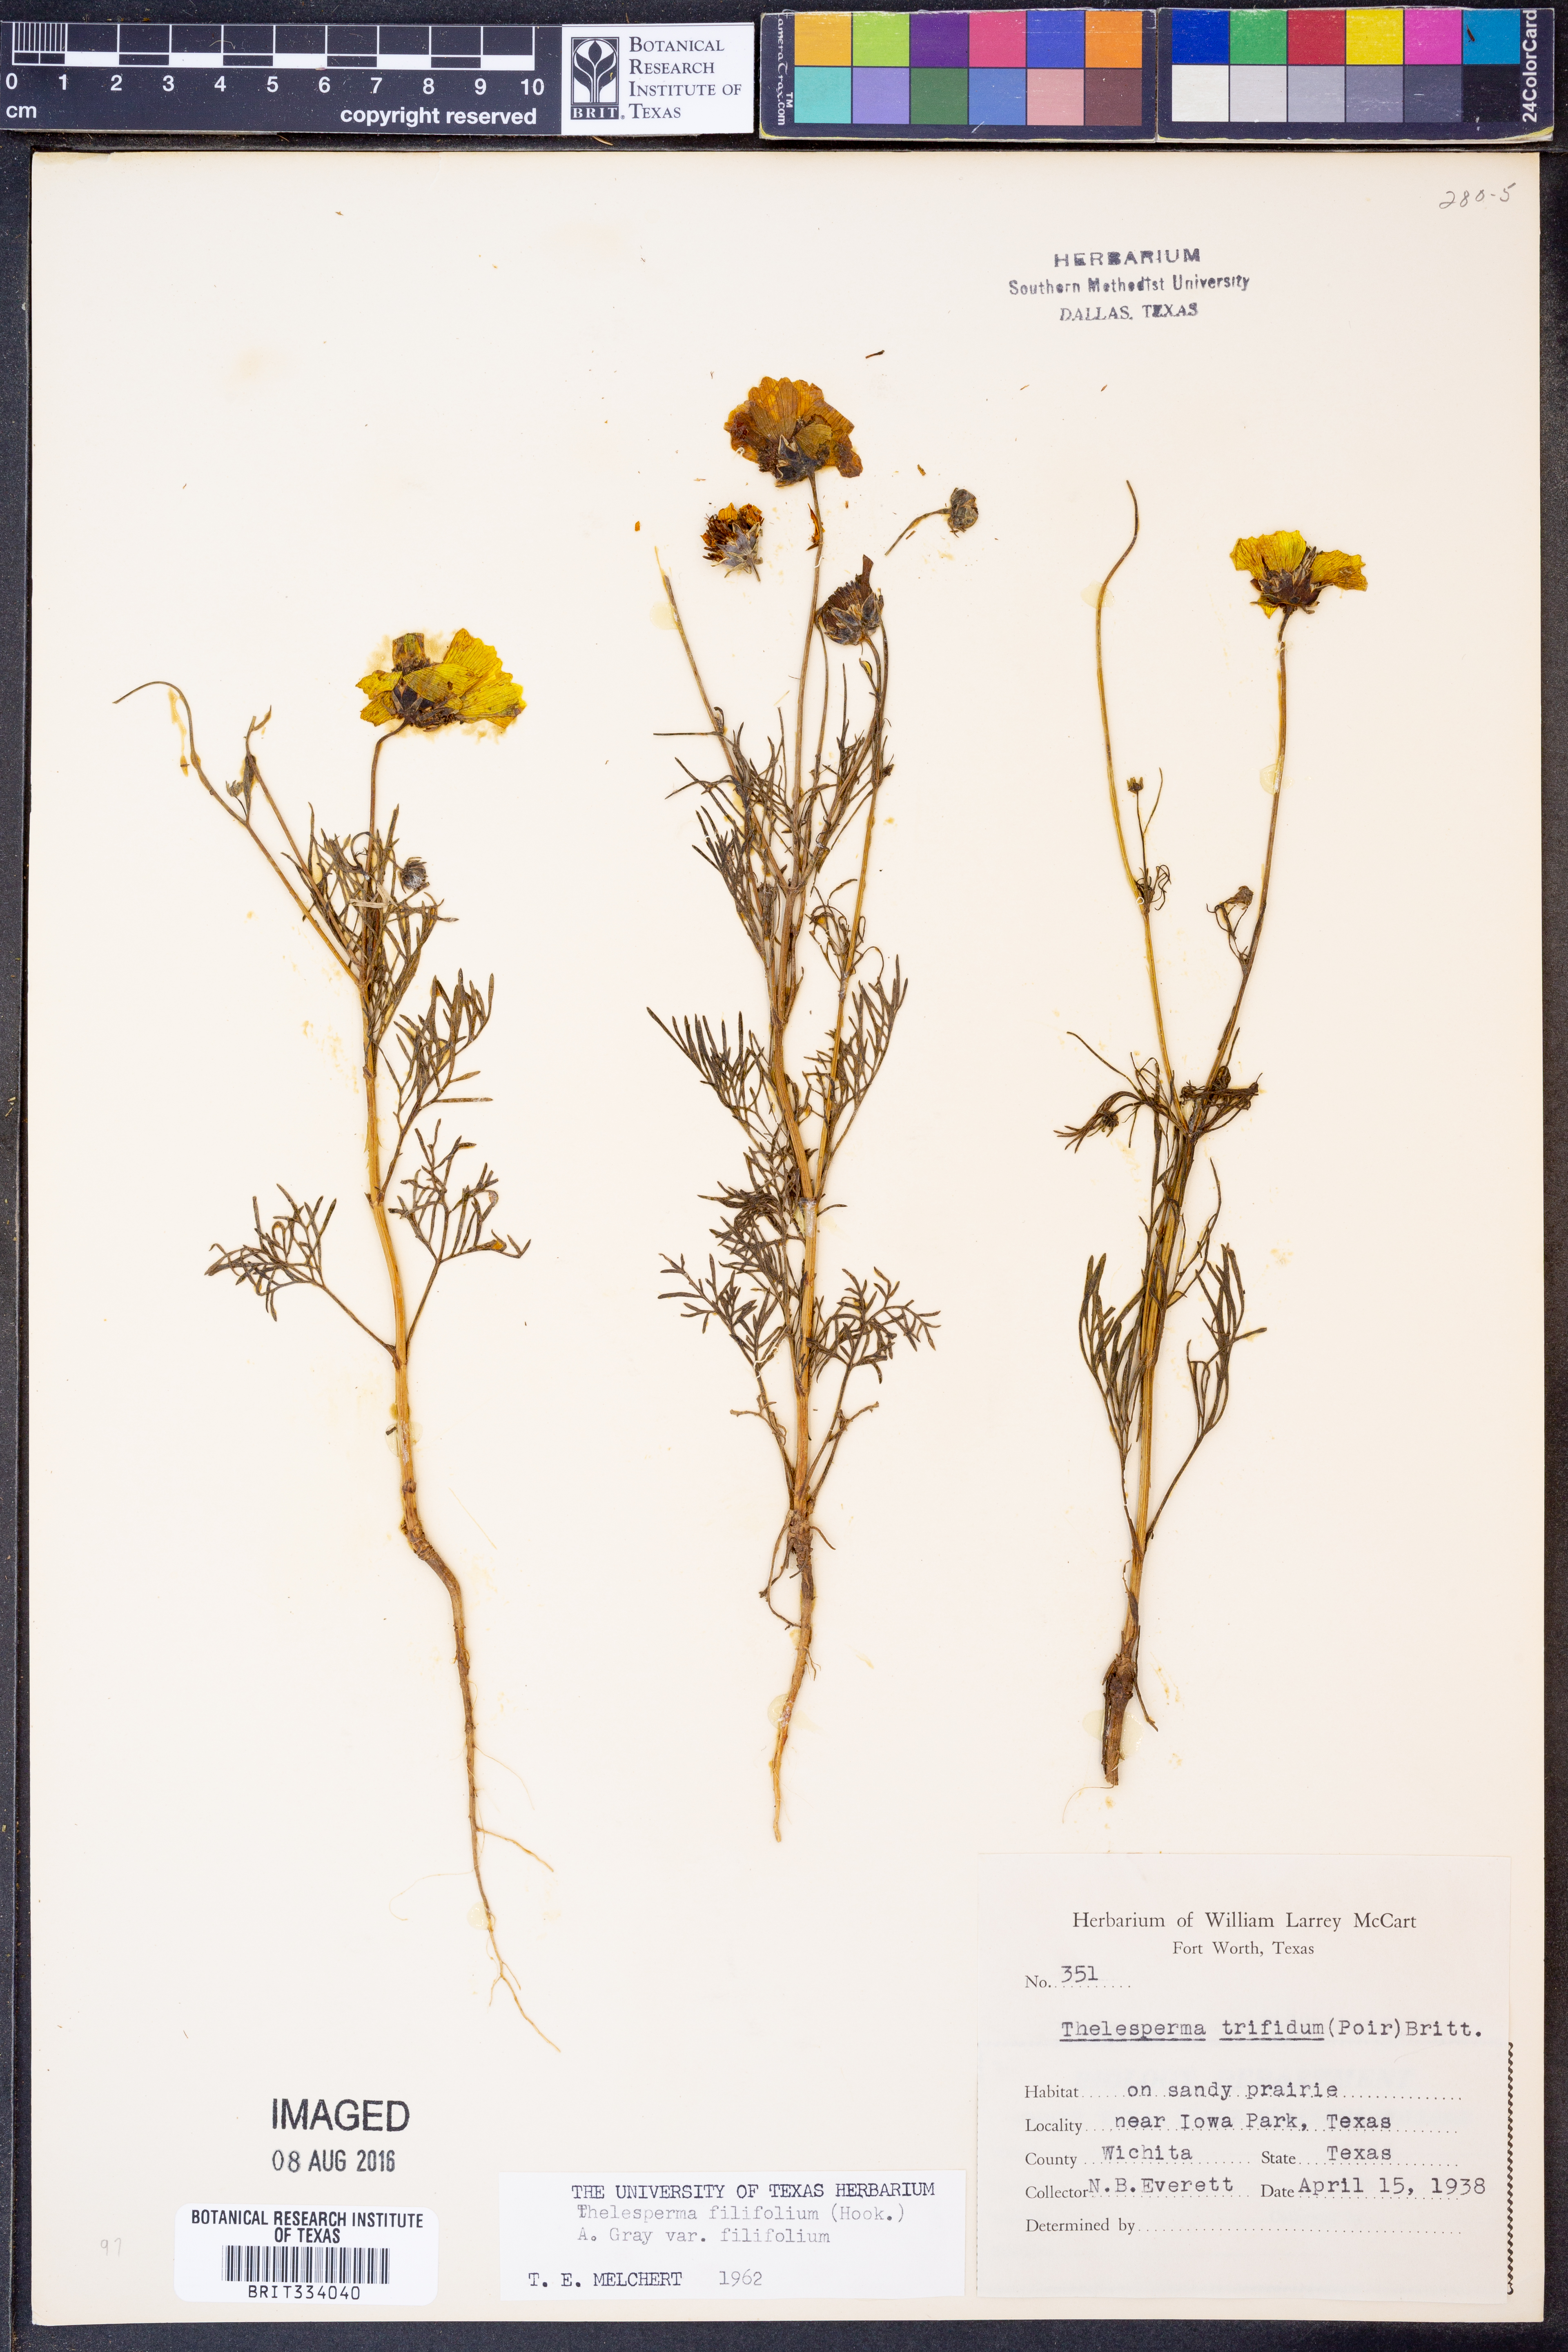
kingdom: Plantae
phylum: Tracheophyta
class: Magnoliopsida
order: Asterales
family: Asteraceae
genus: Thelesperma
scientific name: Thelesperma filifolium
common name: Stiff greenthread
